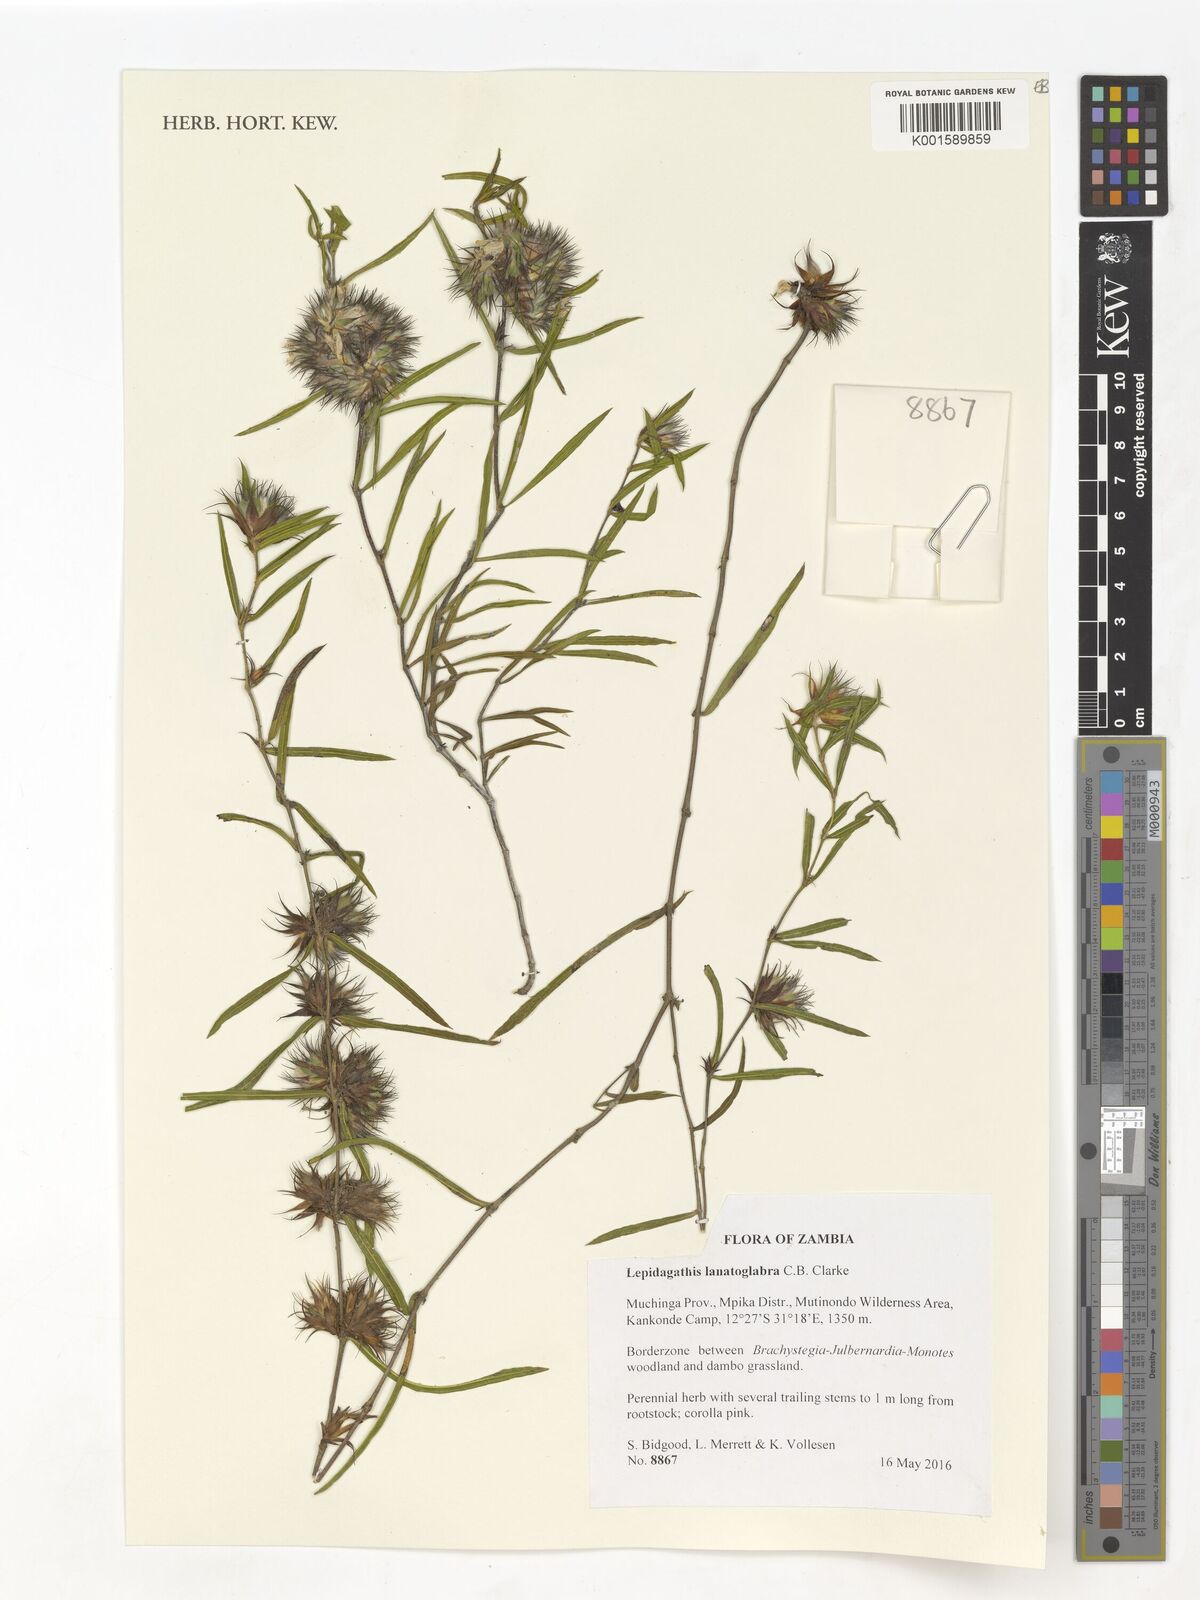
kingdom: Plantae
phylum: Tracheophyta
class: Magnoliopsida
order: Lamiales
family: Acanthaceae
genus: Lepidagathis
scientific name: Lepidagathis lanatoglabra
